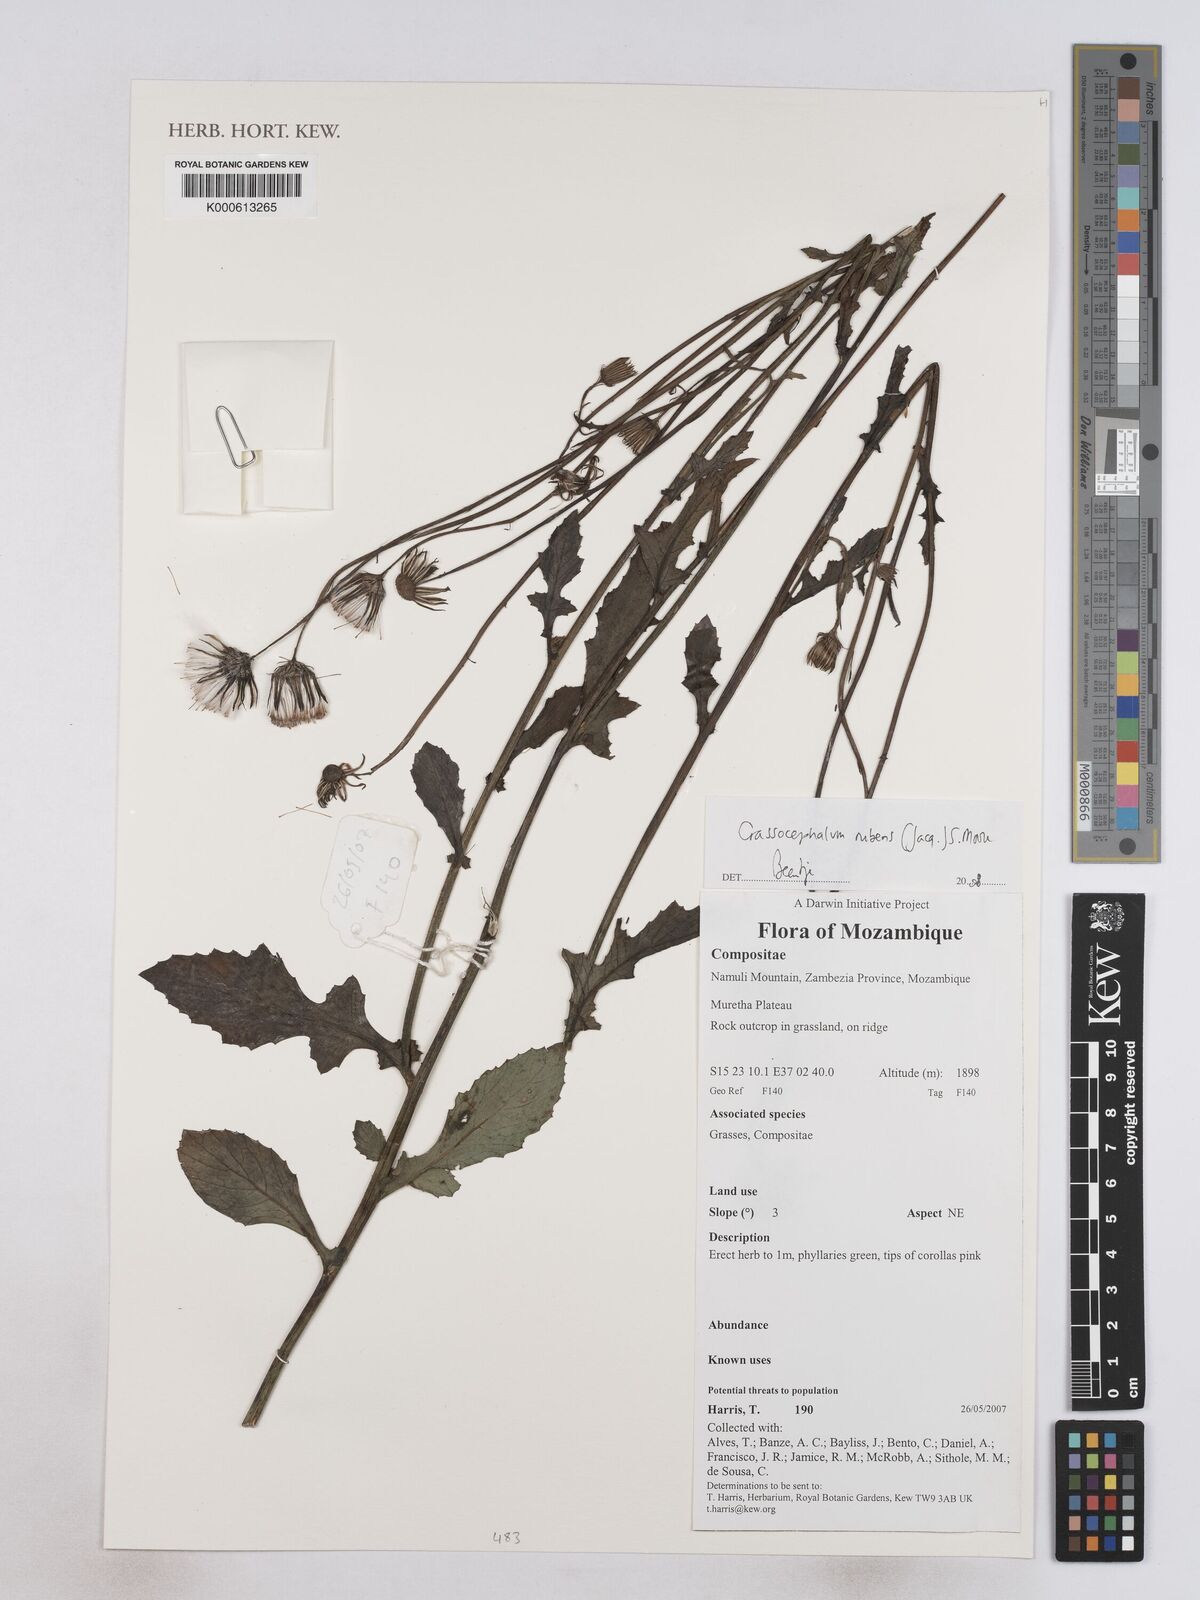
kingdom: Plantae
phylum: Tracheophyta
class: Magnoliopsida
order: Asterales
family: Asteraceae
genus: Crassocephalum
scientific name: Crassocephalum rubens
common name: Yoruban bologi
